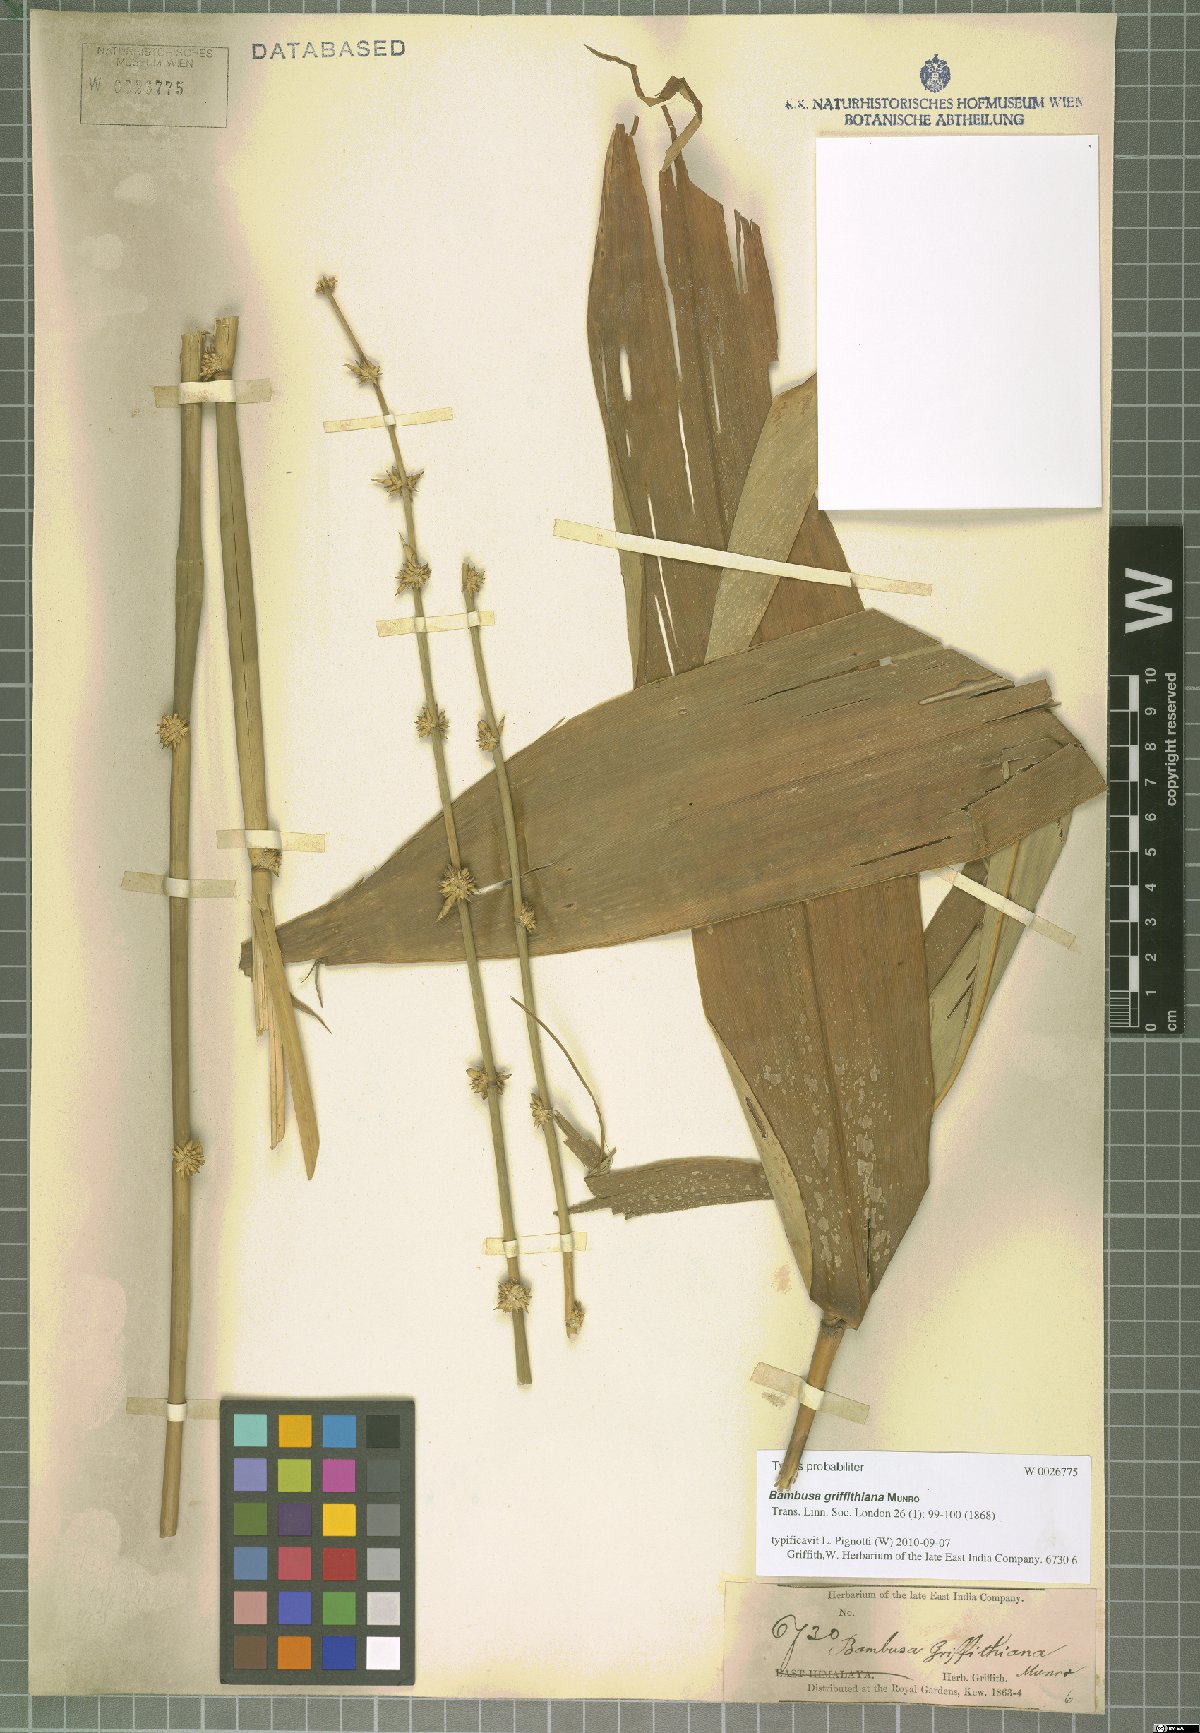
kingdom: Plantae
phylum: Tracheophyta
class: Liliopsida
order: Poales
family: Poaceae
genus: Bambusa
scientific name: Bambusa griffithiana
